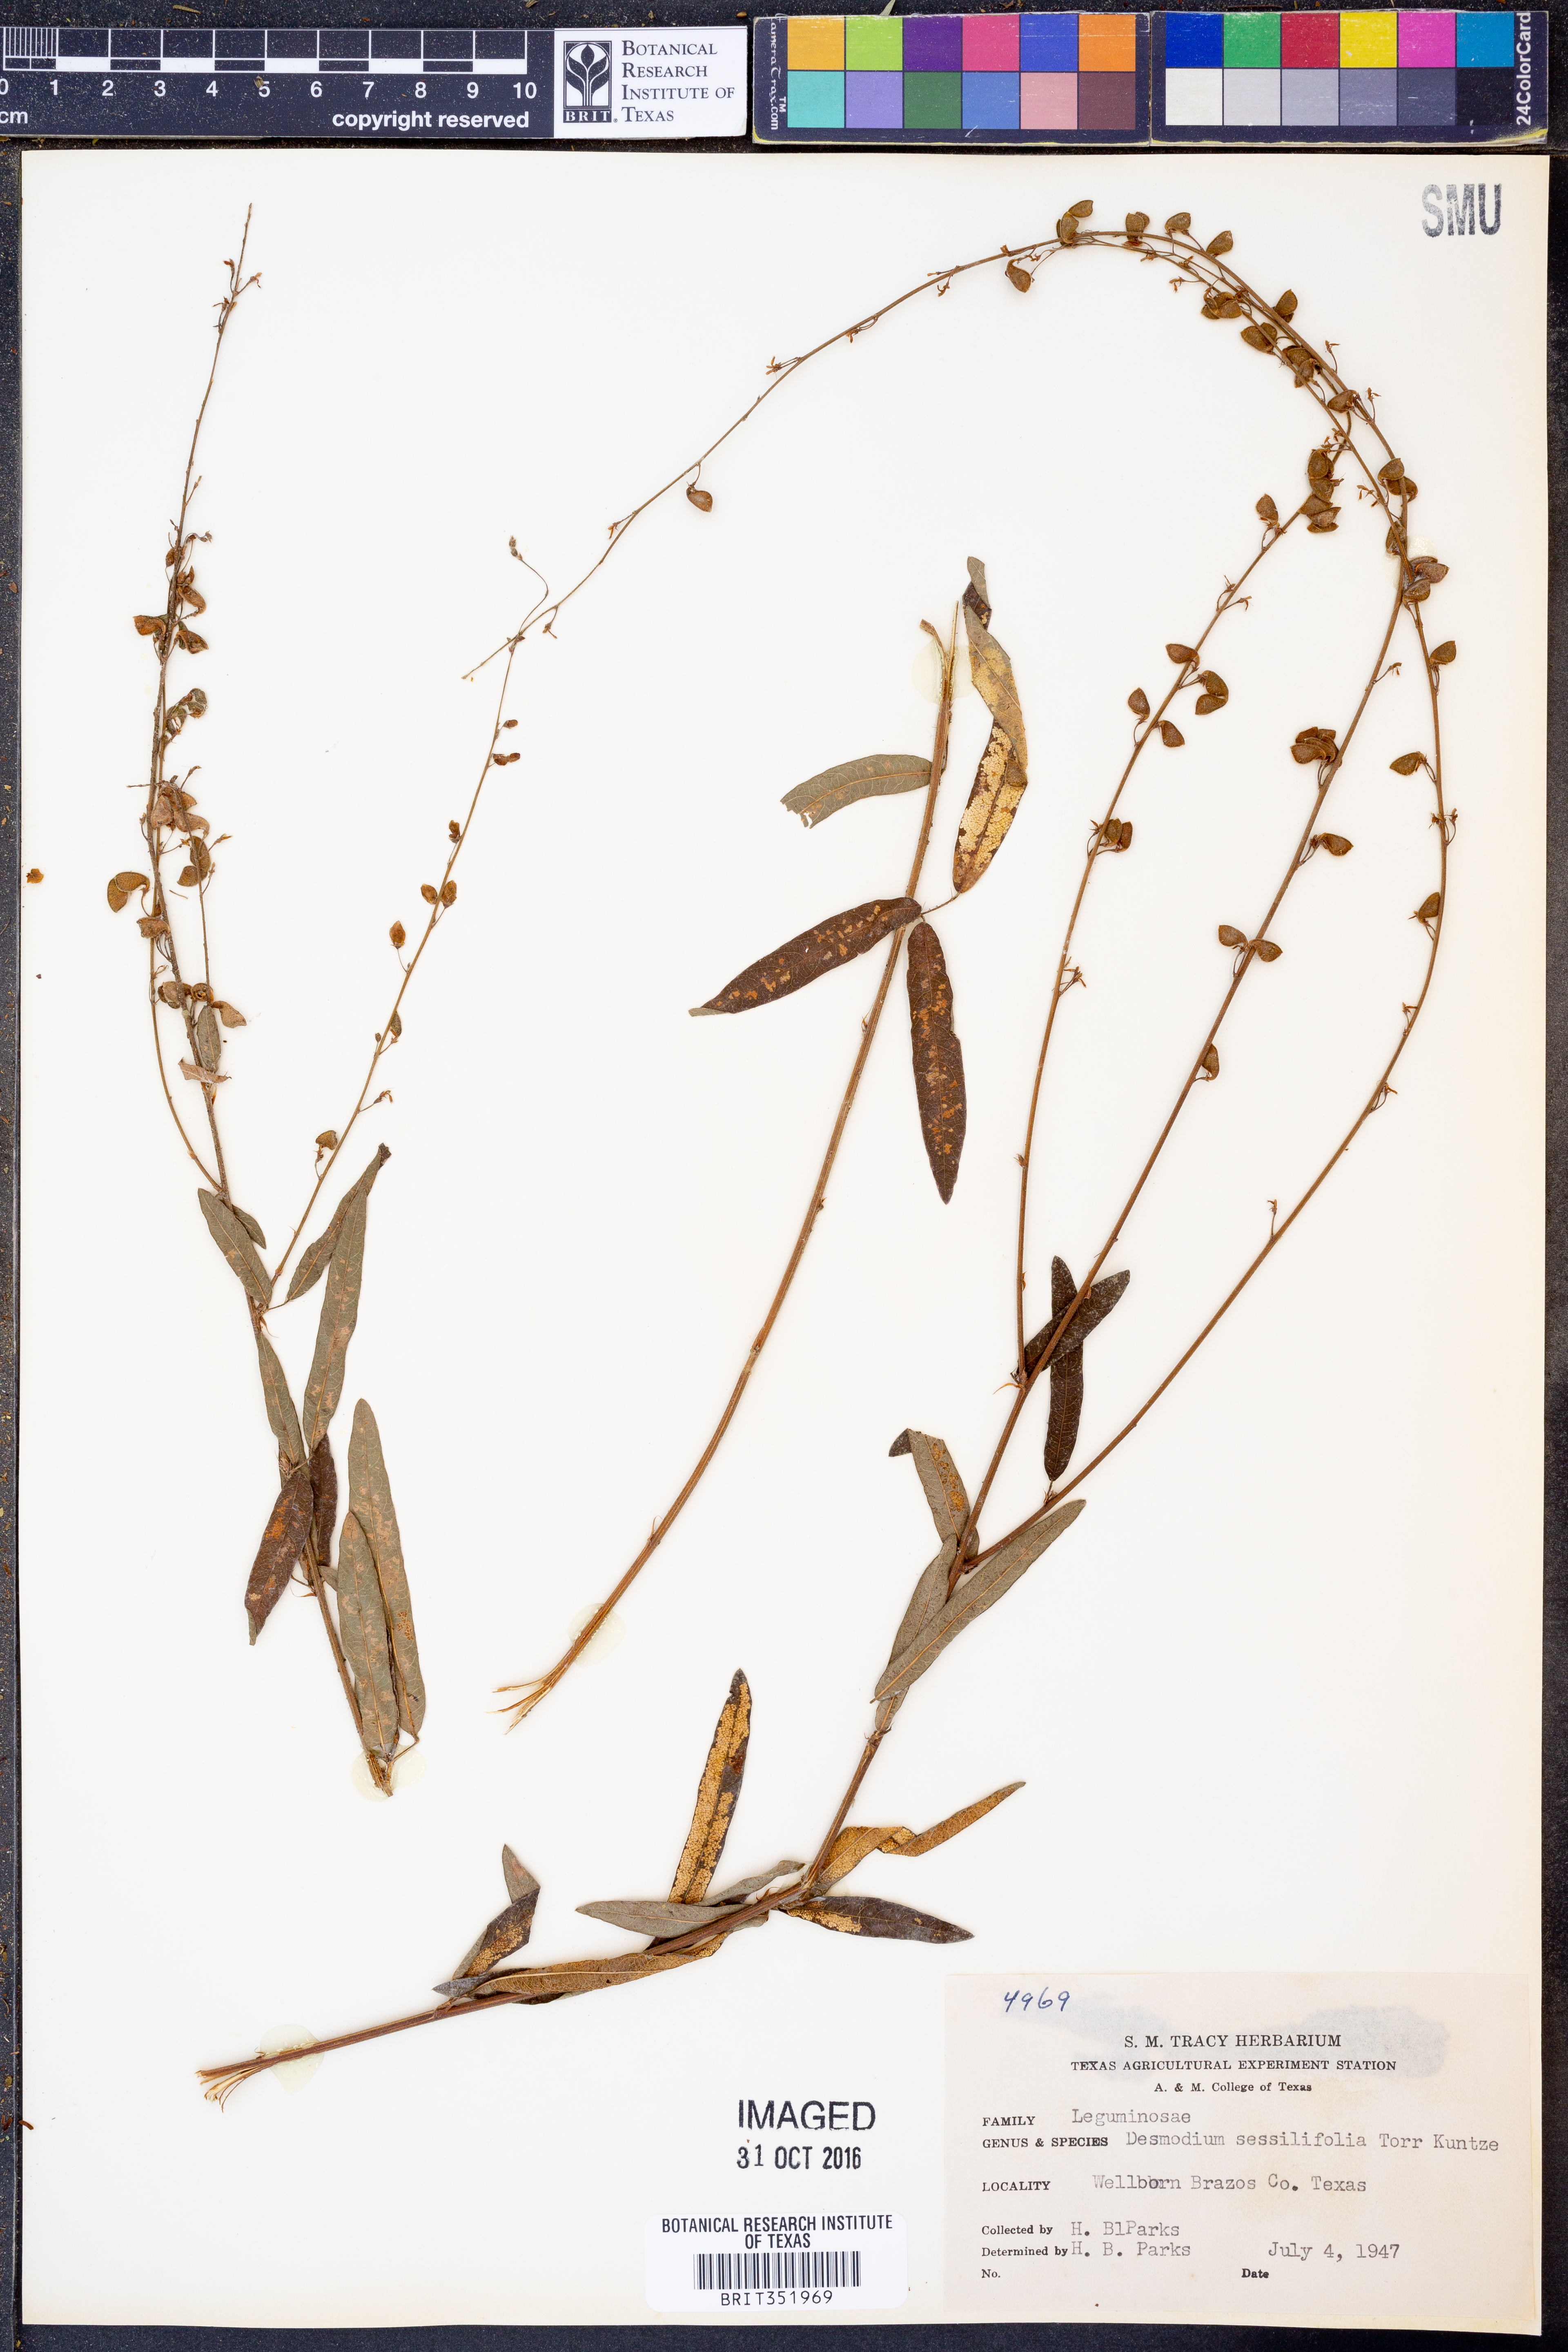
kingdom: Plantae
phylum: Tracheophyta
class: Magnoliopsida
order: Fabales
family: Fabaceae
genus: Desmodium
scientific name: Desmodium sessilifolium
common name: Sessile tick-clover
